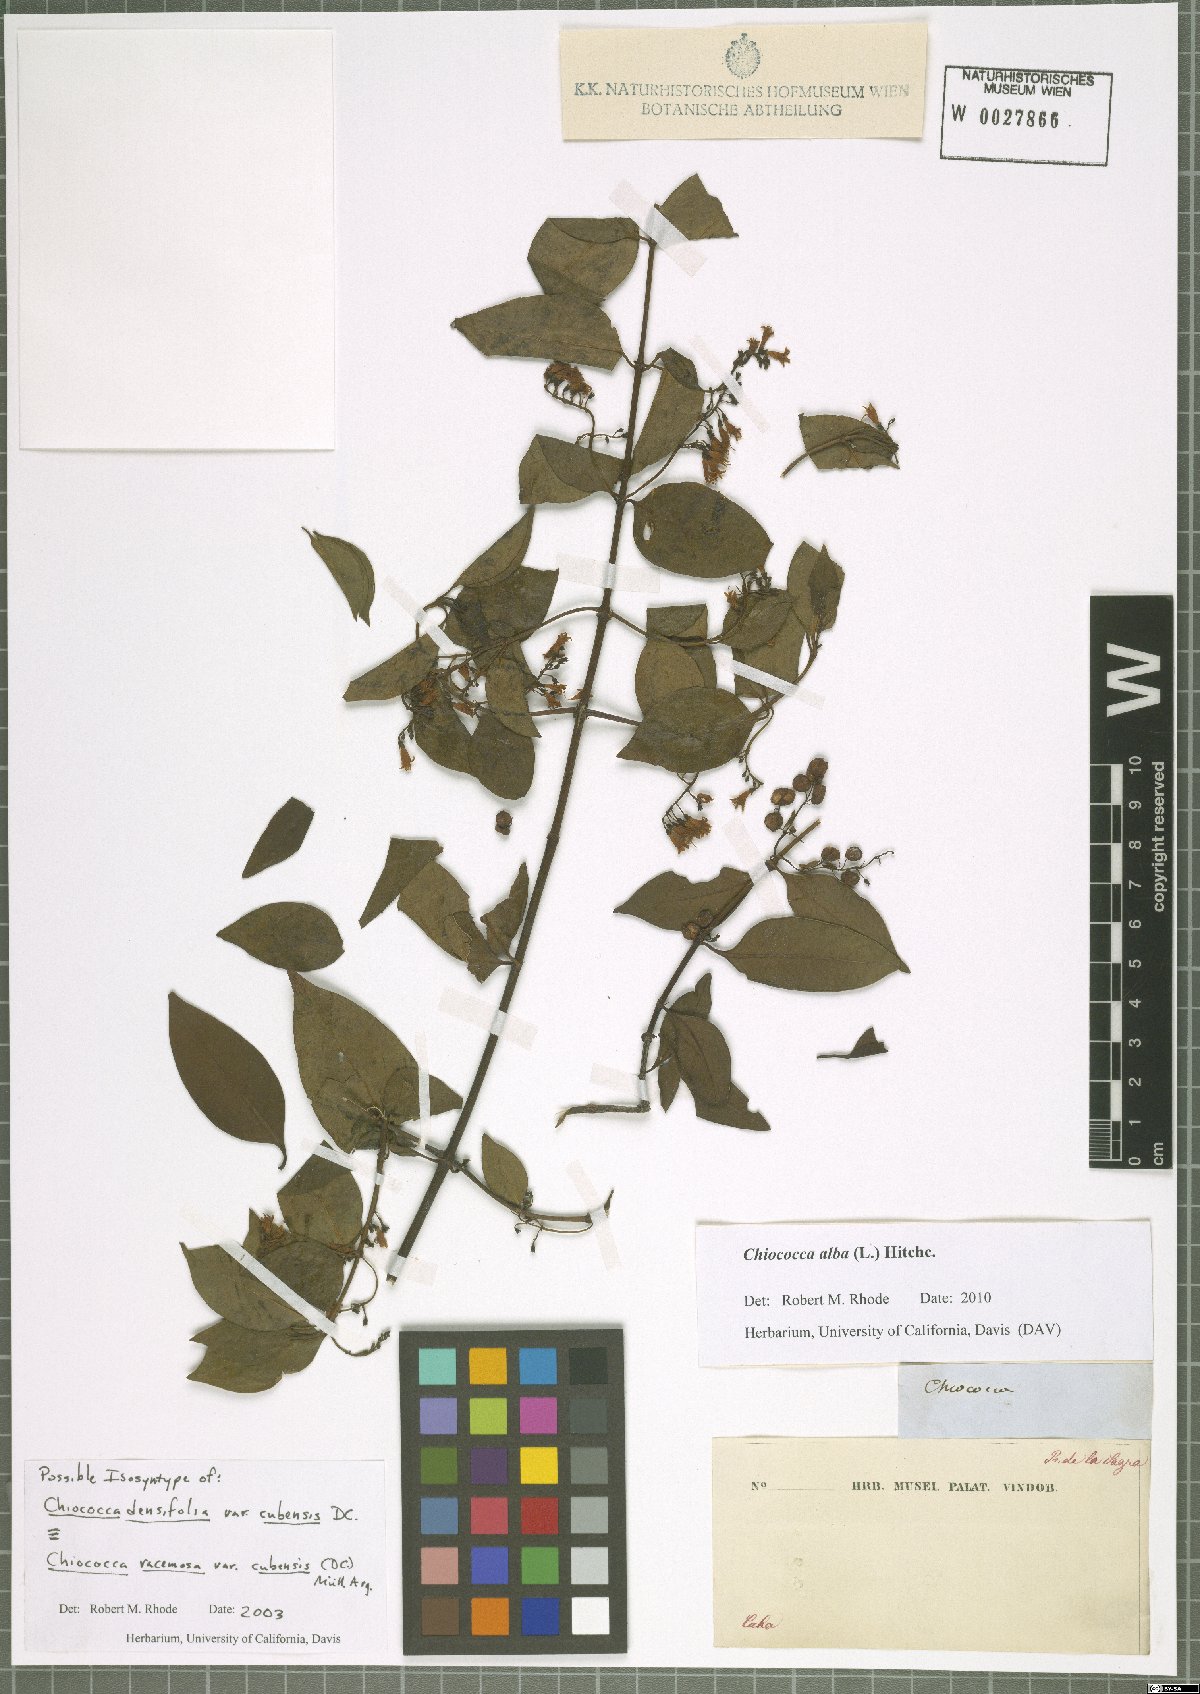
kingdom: Plantae
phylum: Tracheophyta
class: Magnoliopsida
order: Gentianales
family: Rubiaceae
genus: Chiococca
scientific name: Chiococca alba
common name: Snowberry
